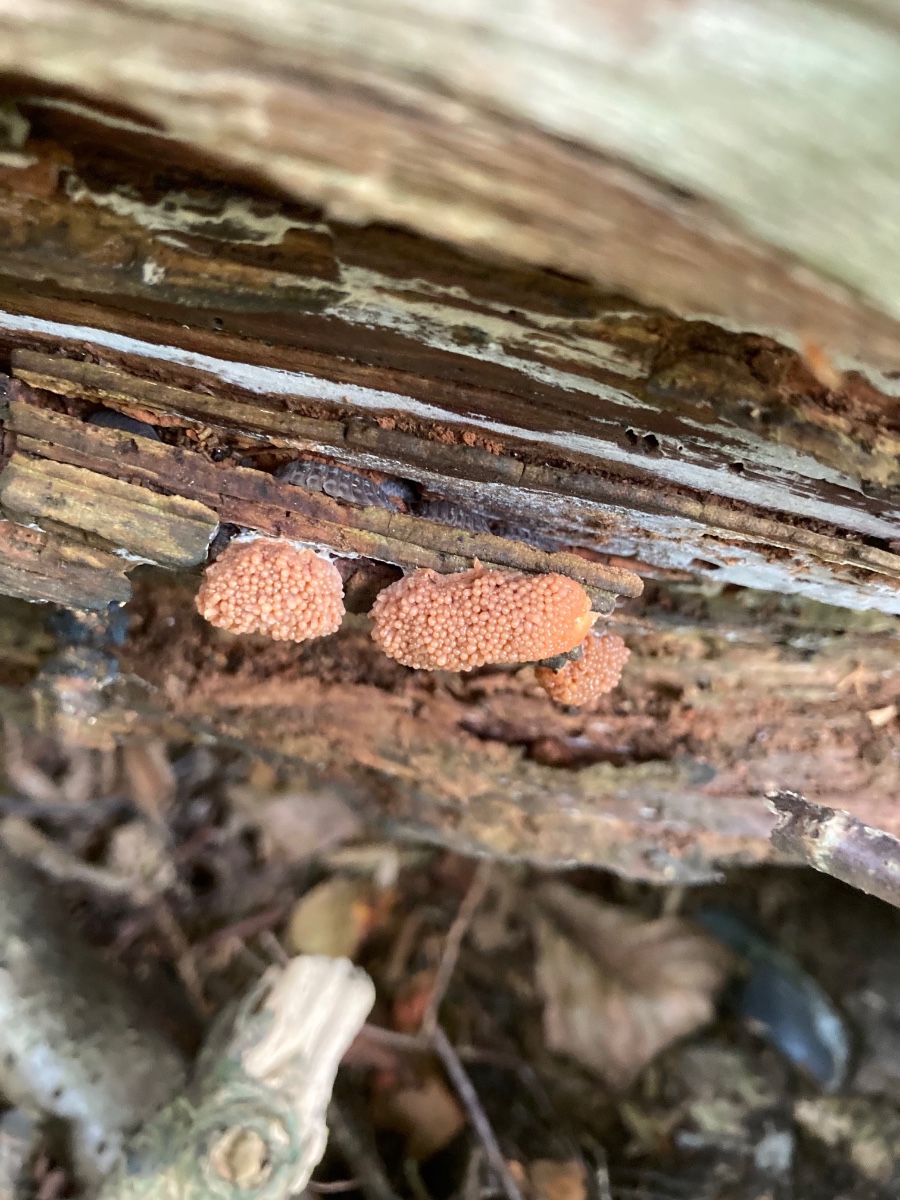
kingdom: Protozoa
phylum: Mycetozoa
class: Myxomycetes
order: Cribrariales
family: Tubiferaceae
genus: Tubifera
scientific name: Tubifera ferruginosa
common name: kanel-støvrør
